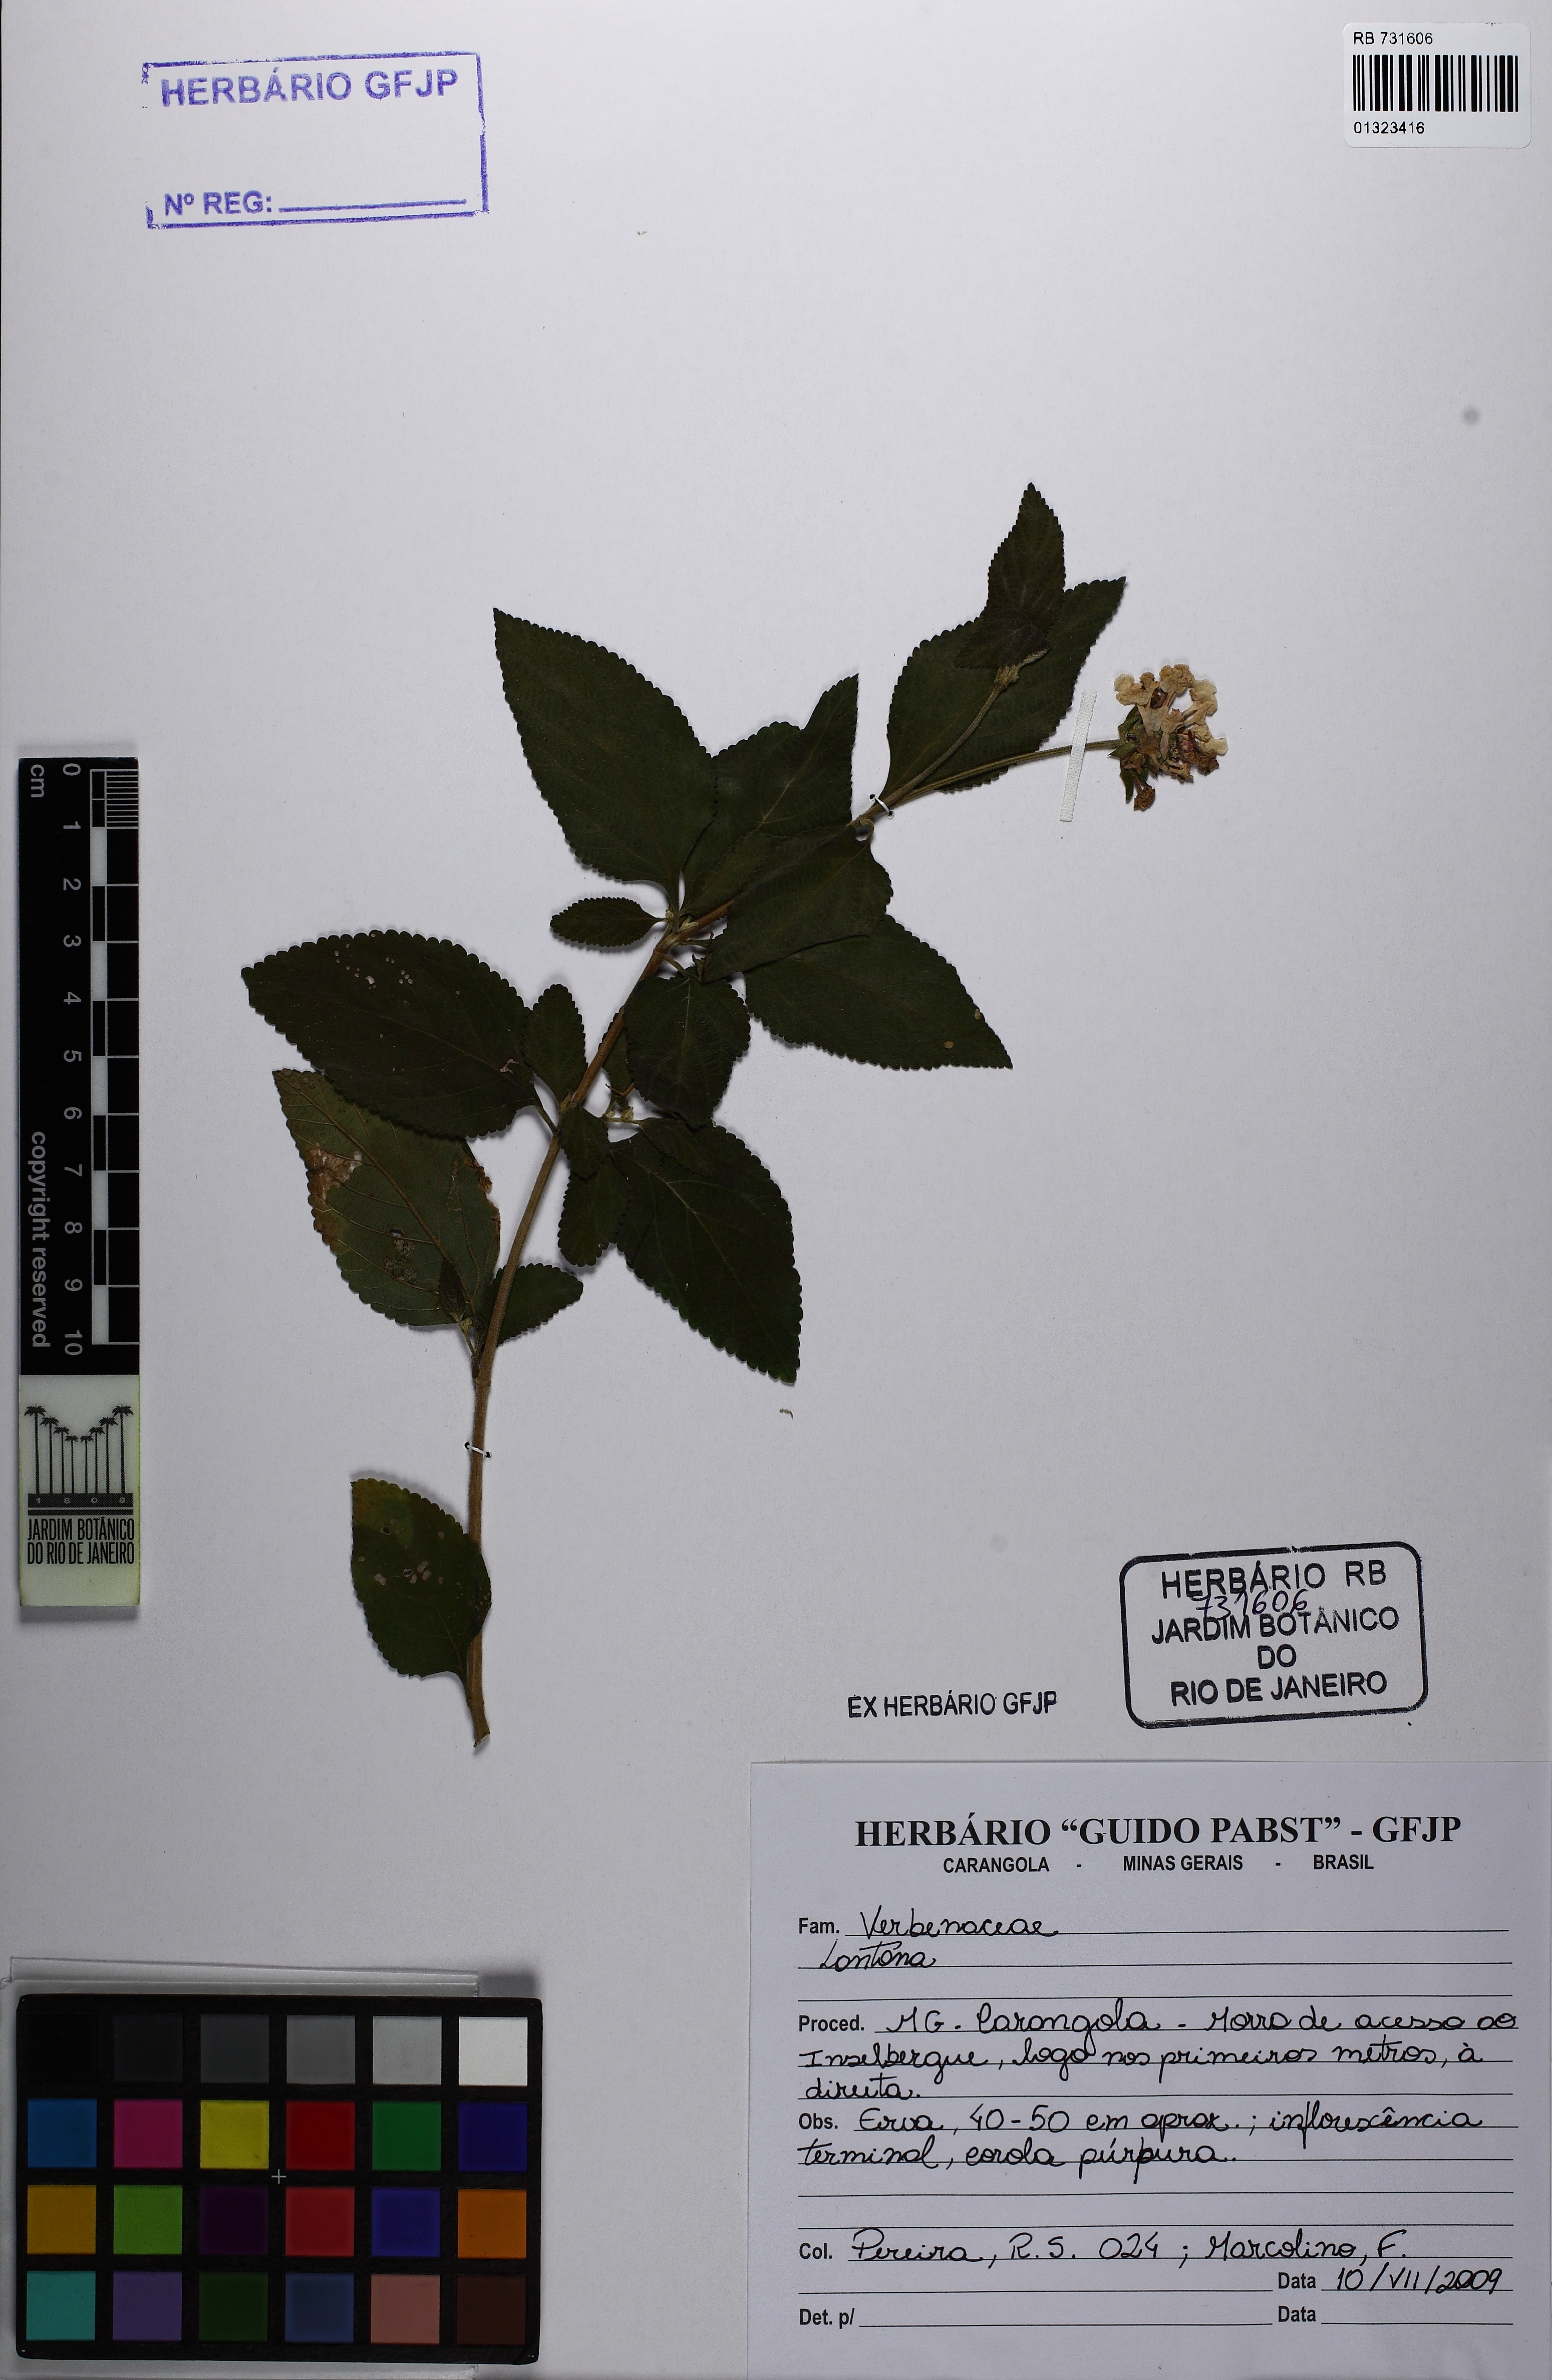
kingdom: Plantae
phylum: Tracheophyta
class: Magnoliopsida
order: Lamiales
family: Verbenaceae
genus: Lantana
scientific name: Lantana
